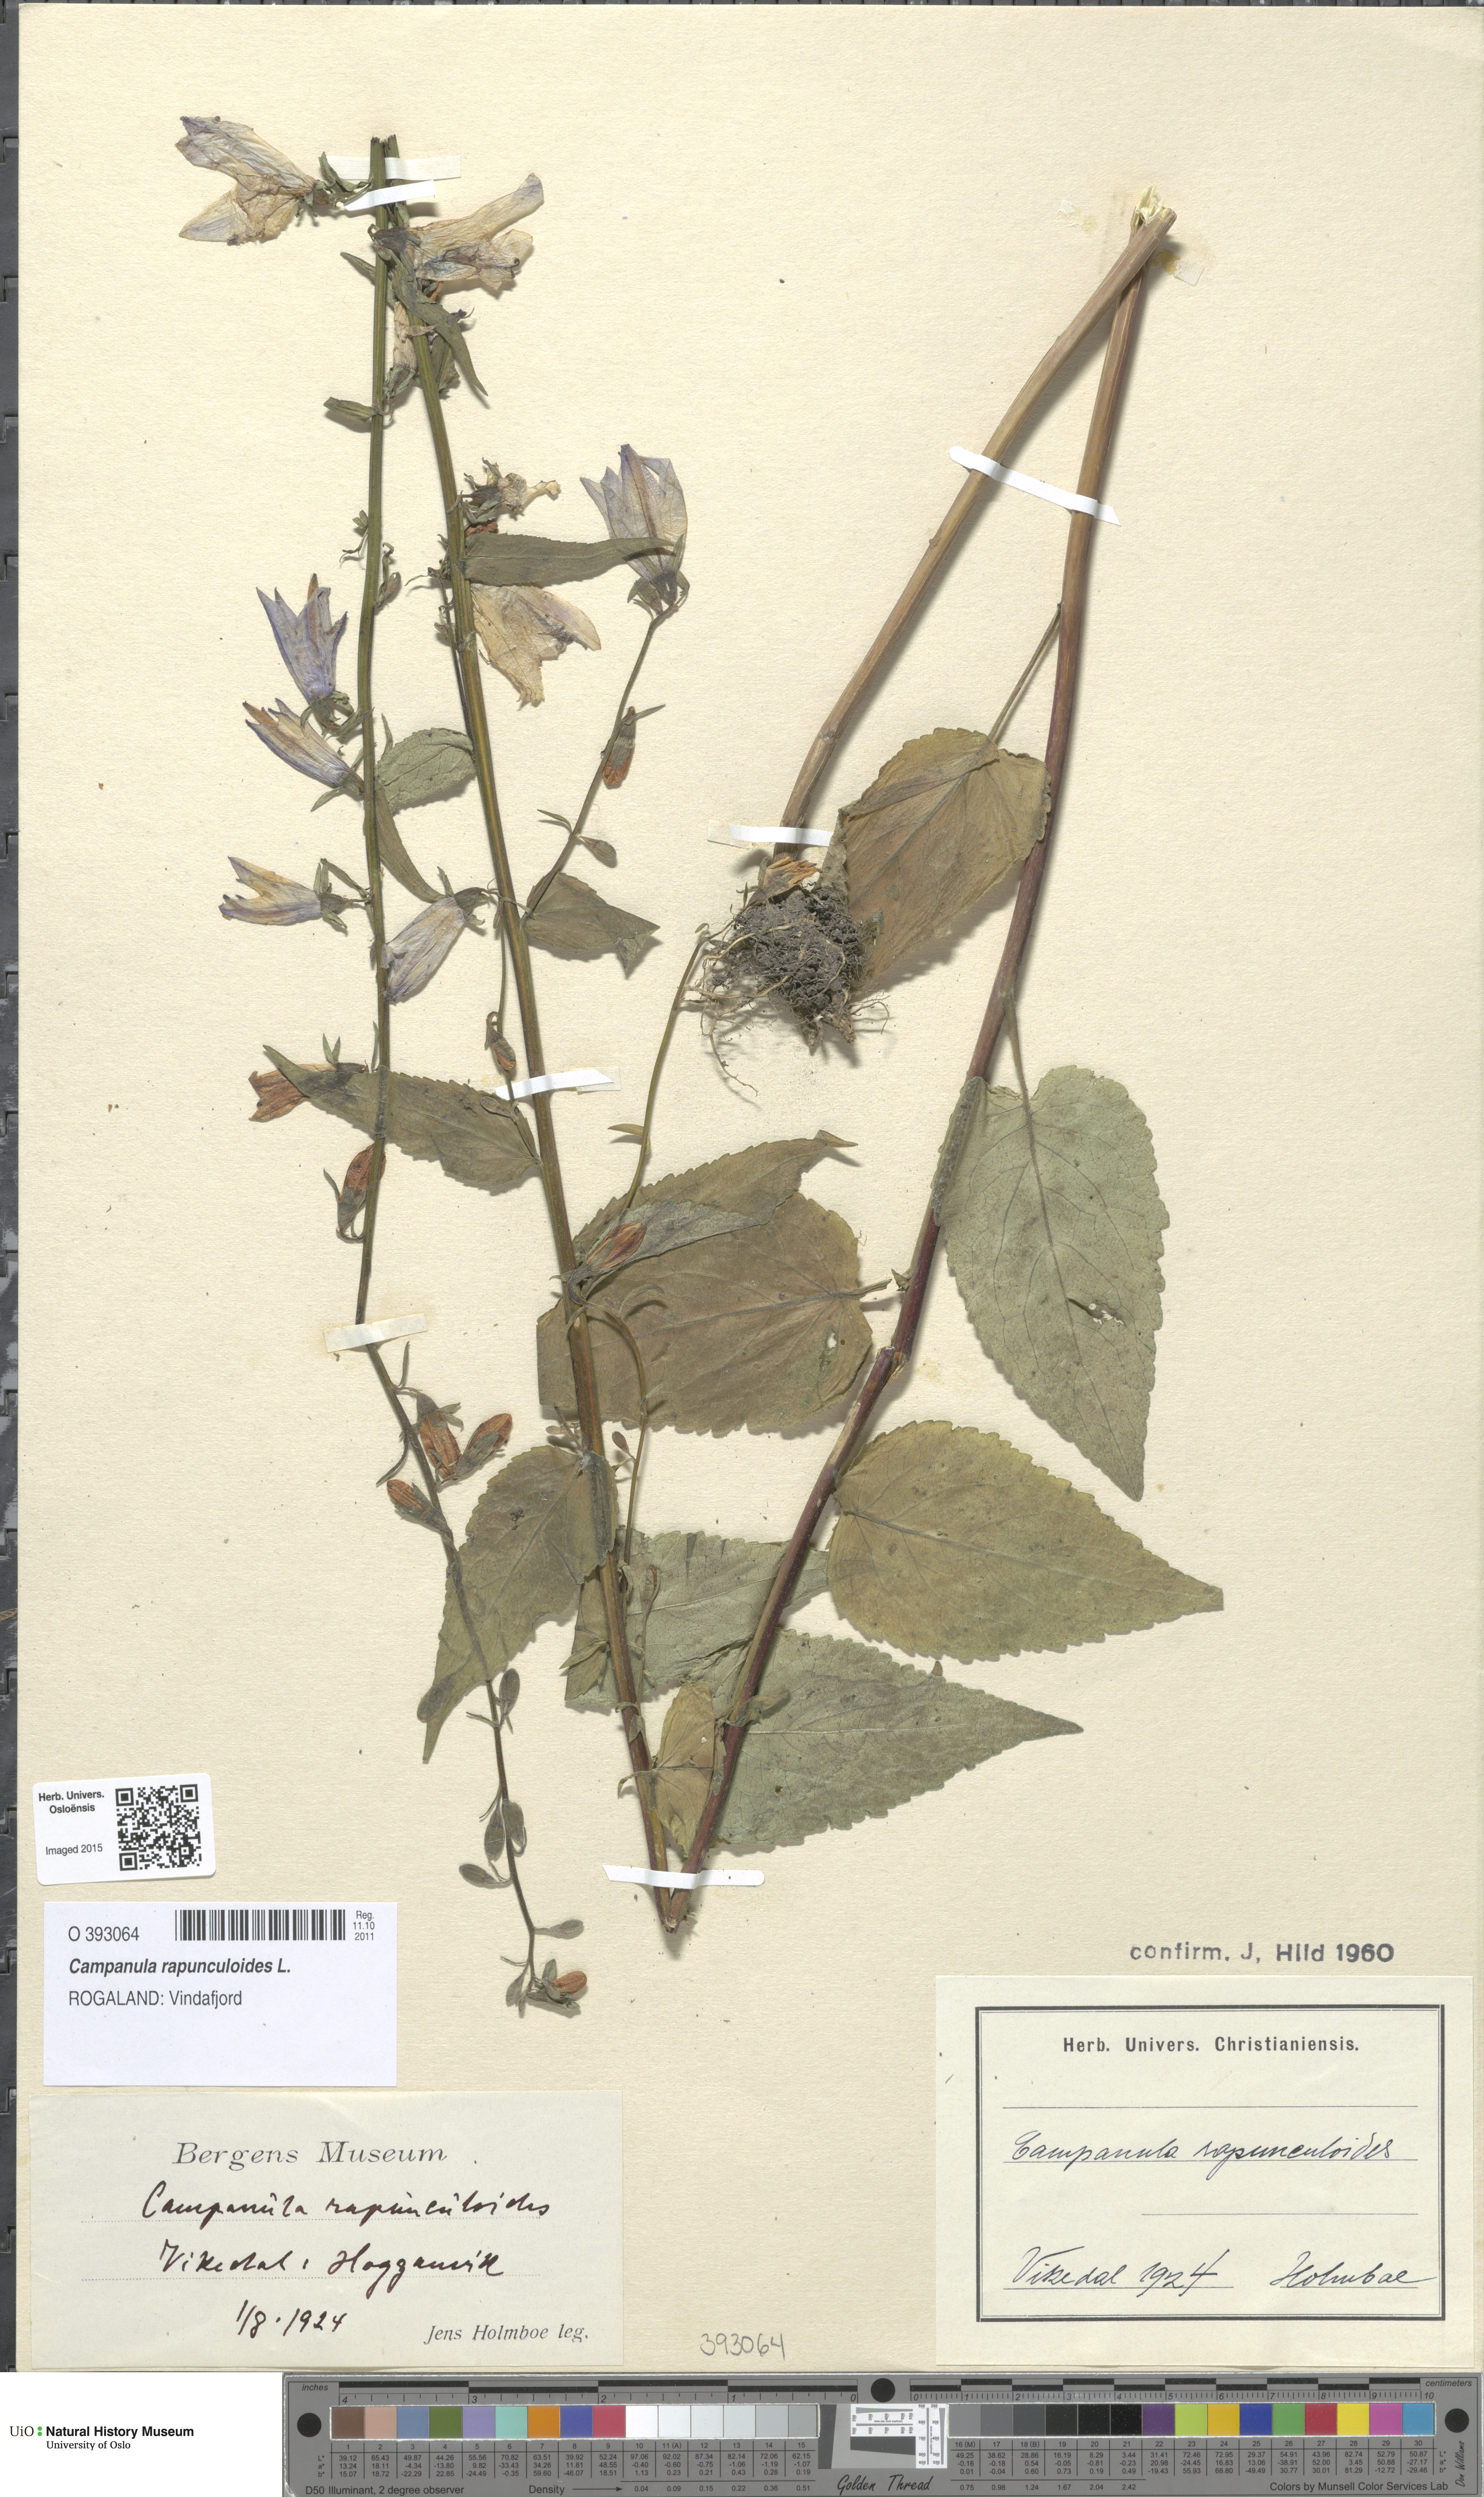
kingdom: Plantae
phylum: Tracheophyta
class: Magnoliopsida
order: Asterales
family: Campanulaceae
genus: Campanula
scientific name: Campanula rapunculoides
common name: Creeping bellflower
